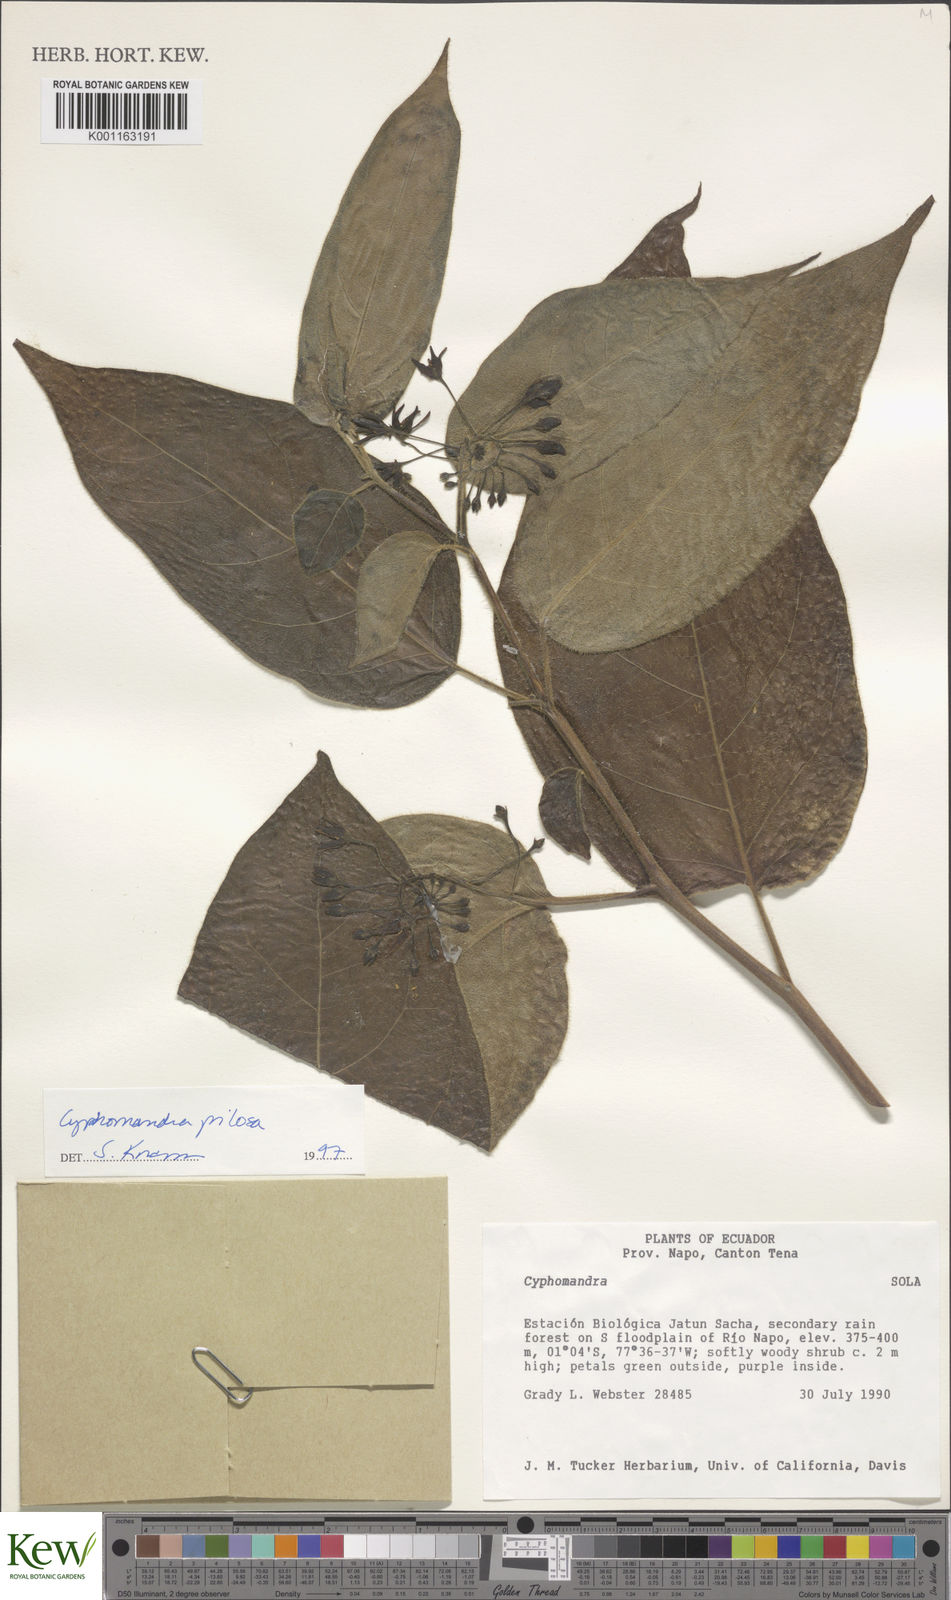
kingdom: Plantae
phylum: Tracheophyta
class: Magnoliopsida
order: Solanales
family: Solanaceae
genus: Solanum
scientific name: Solanum calidum
